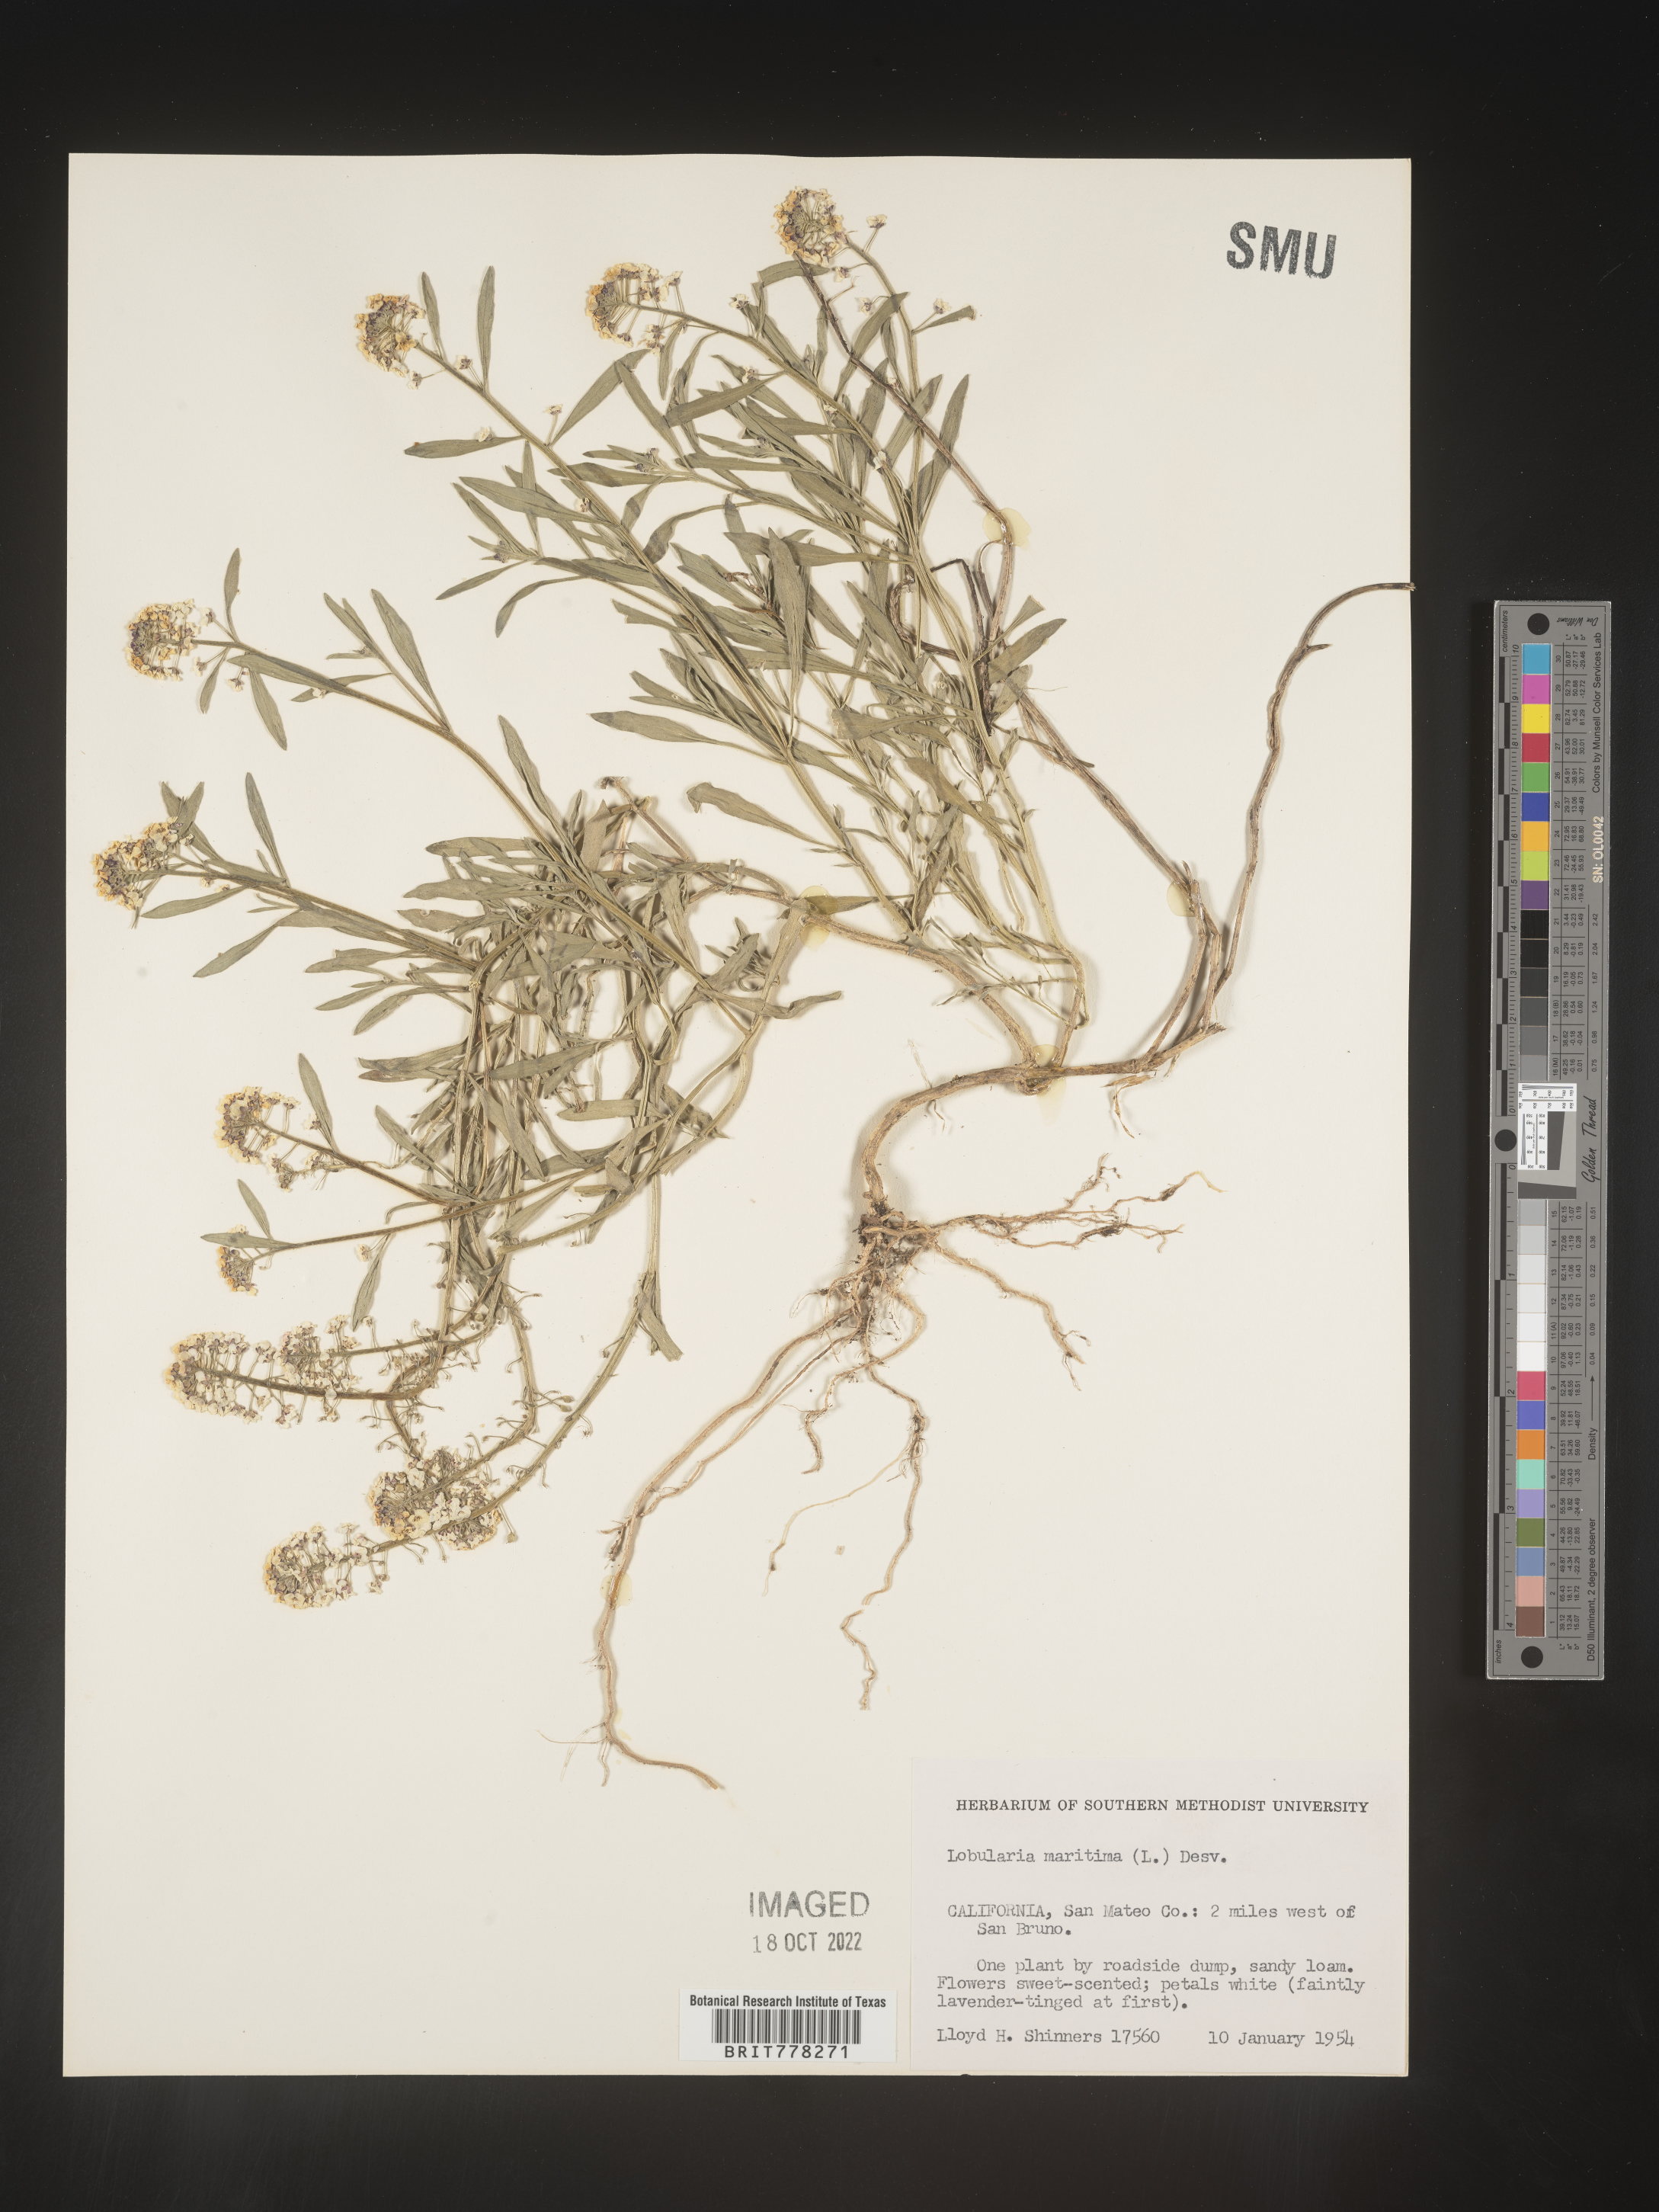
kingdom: Plantae
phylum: Tracheophyta
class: Magnoliopsida
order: Brassicales
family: Brassicaceae
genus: Lobularia
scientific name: Lobularia
